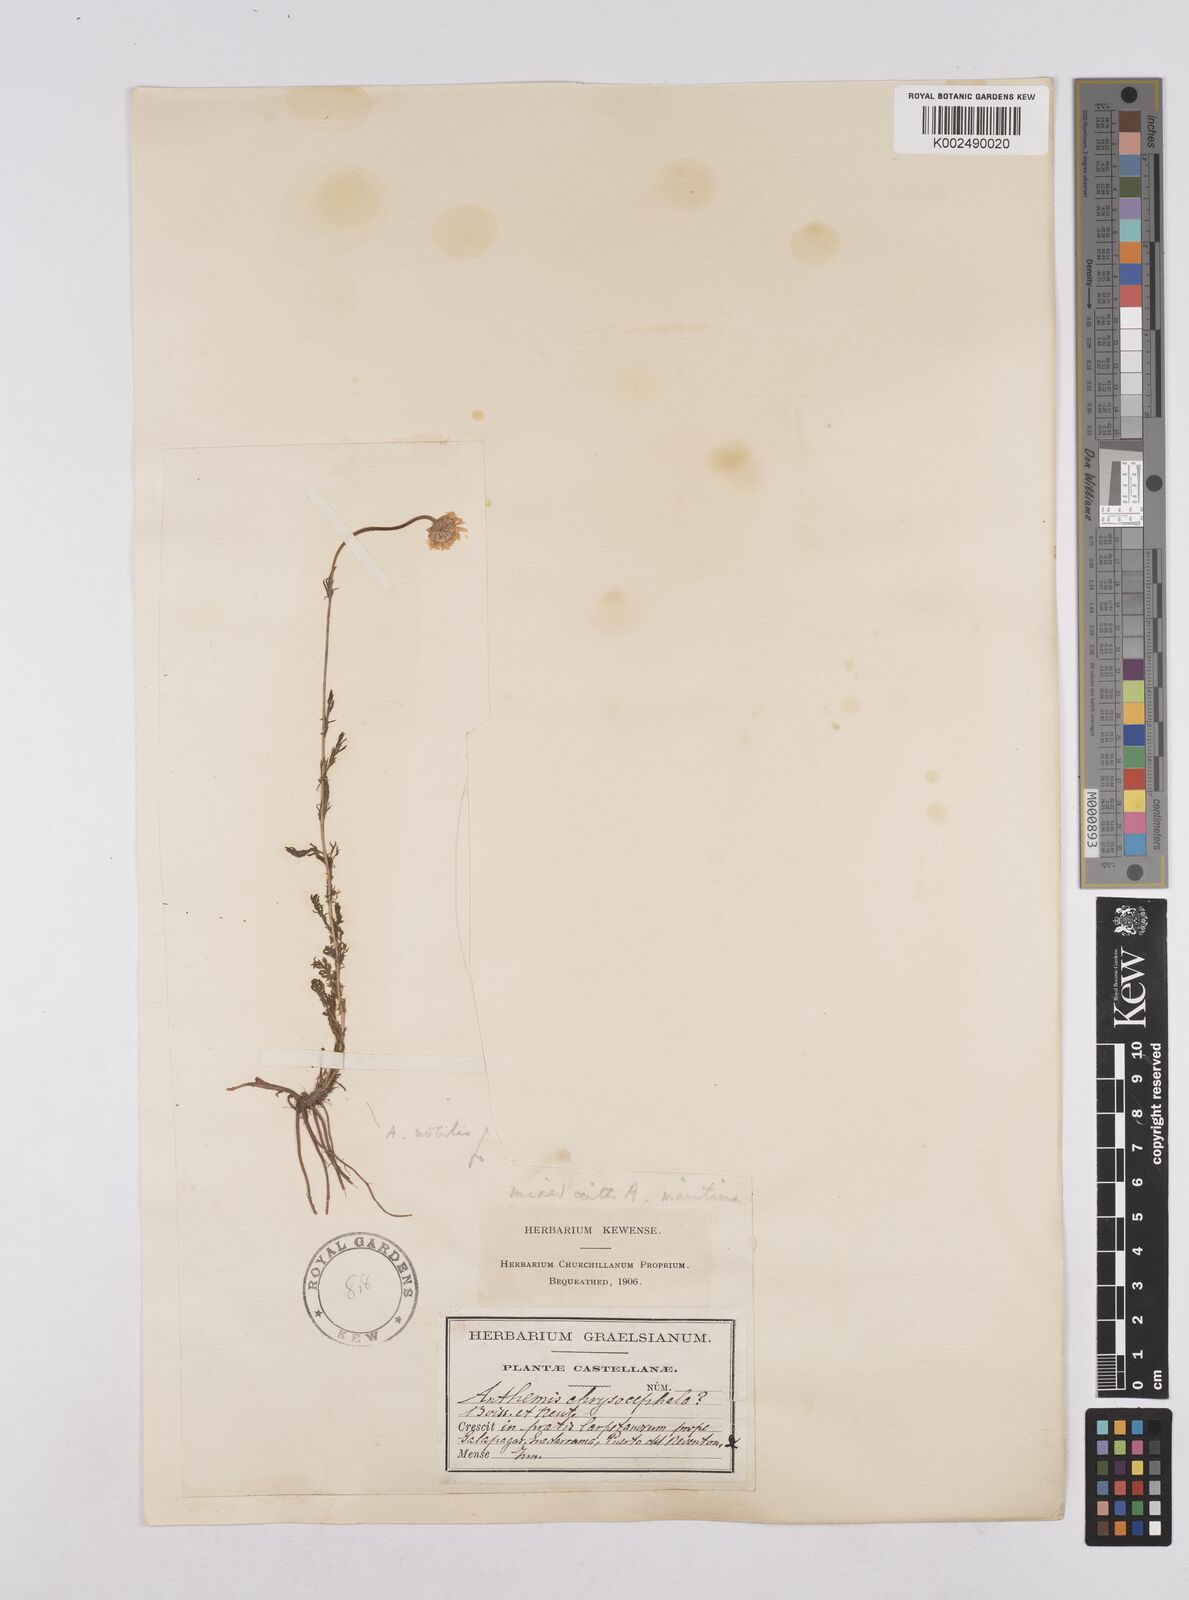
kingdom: Plantae
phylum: Tracheophyta
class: Magnoliopsida
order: Asterales
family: Asteraceae
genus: Chamaemelum
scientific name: Chamaemelum
